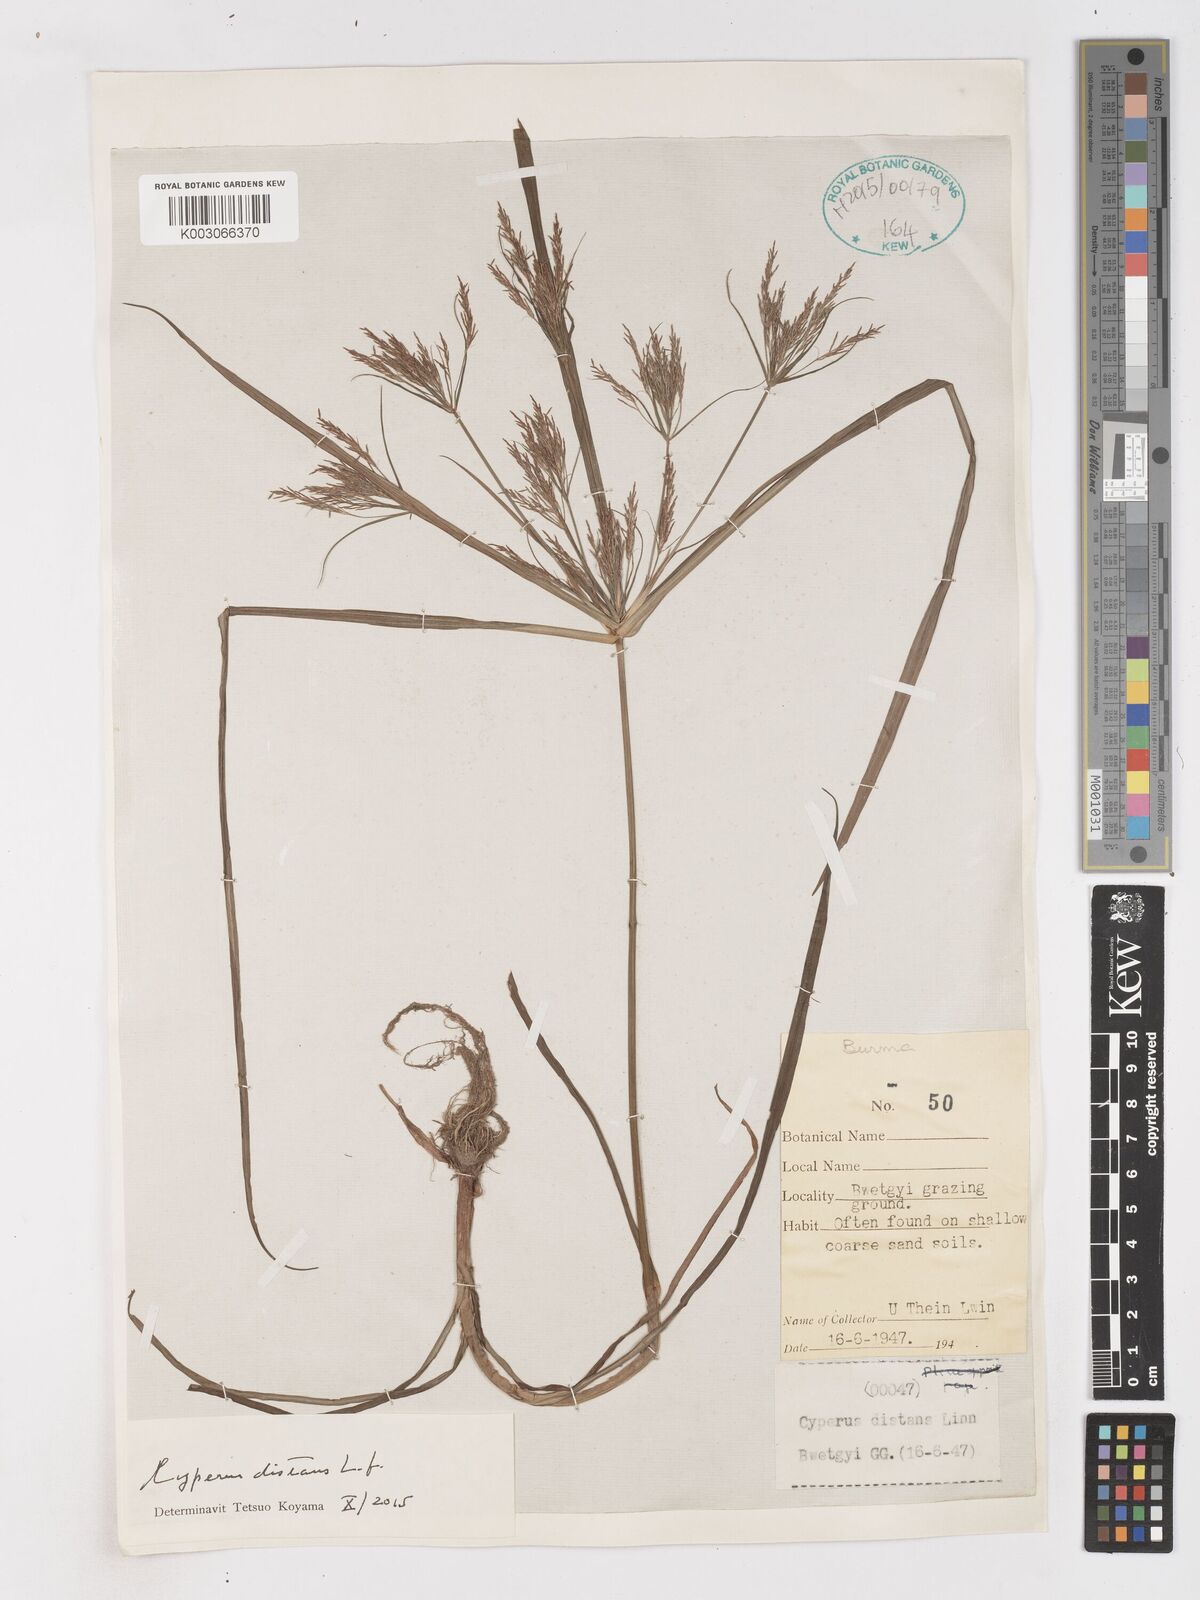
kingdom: Plantae
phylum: Tracheophyta
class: Liliopsida
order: Poales
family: Cyperaceae
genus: Cyperus
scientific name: Cyperus distans
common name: Slender cyperus
